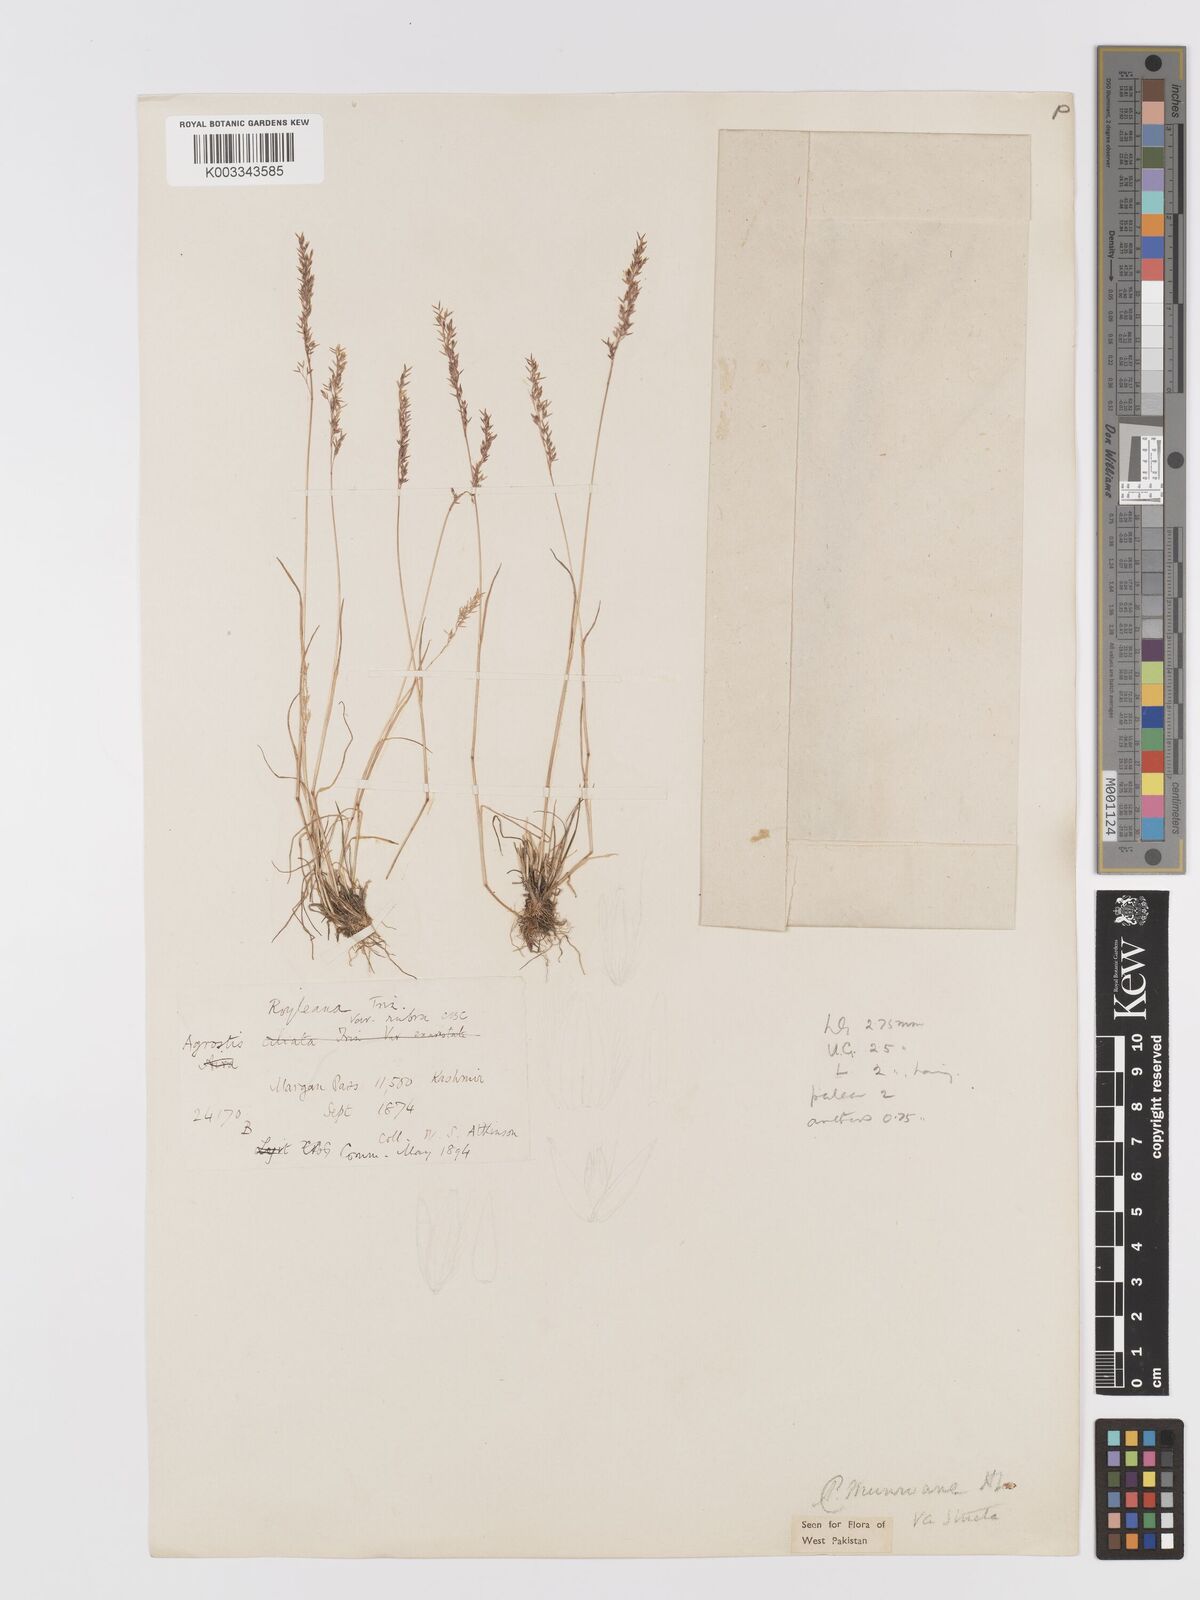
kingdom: Plantae
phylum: Tracheophyta
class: Liliopsida
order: Poales
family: Poaceae
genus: Agrostis
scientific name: Agrostis munroana
